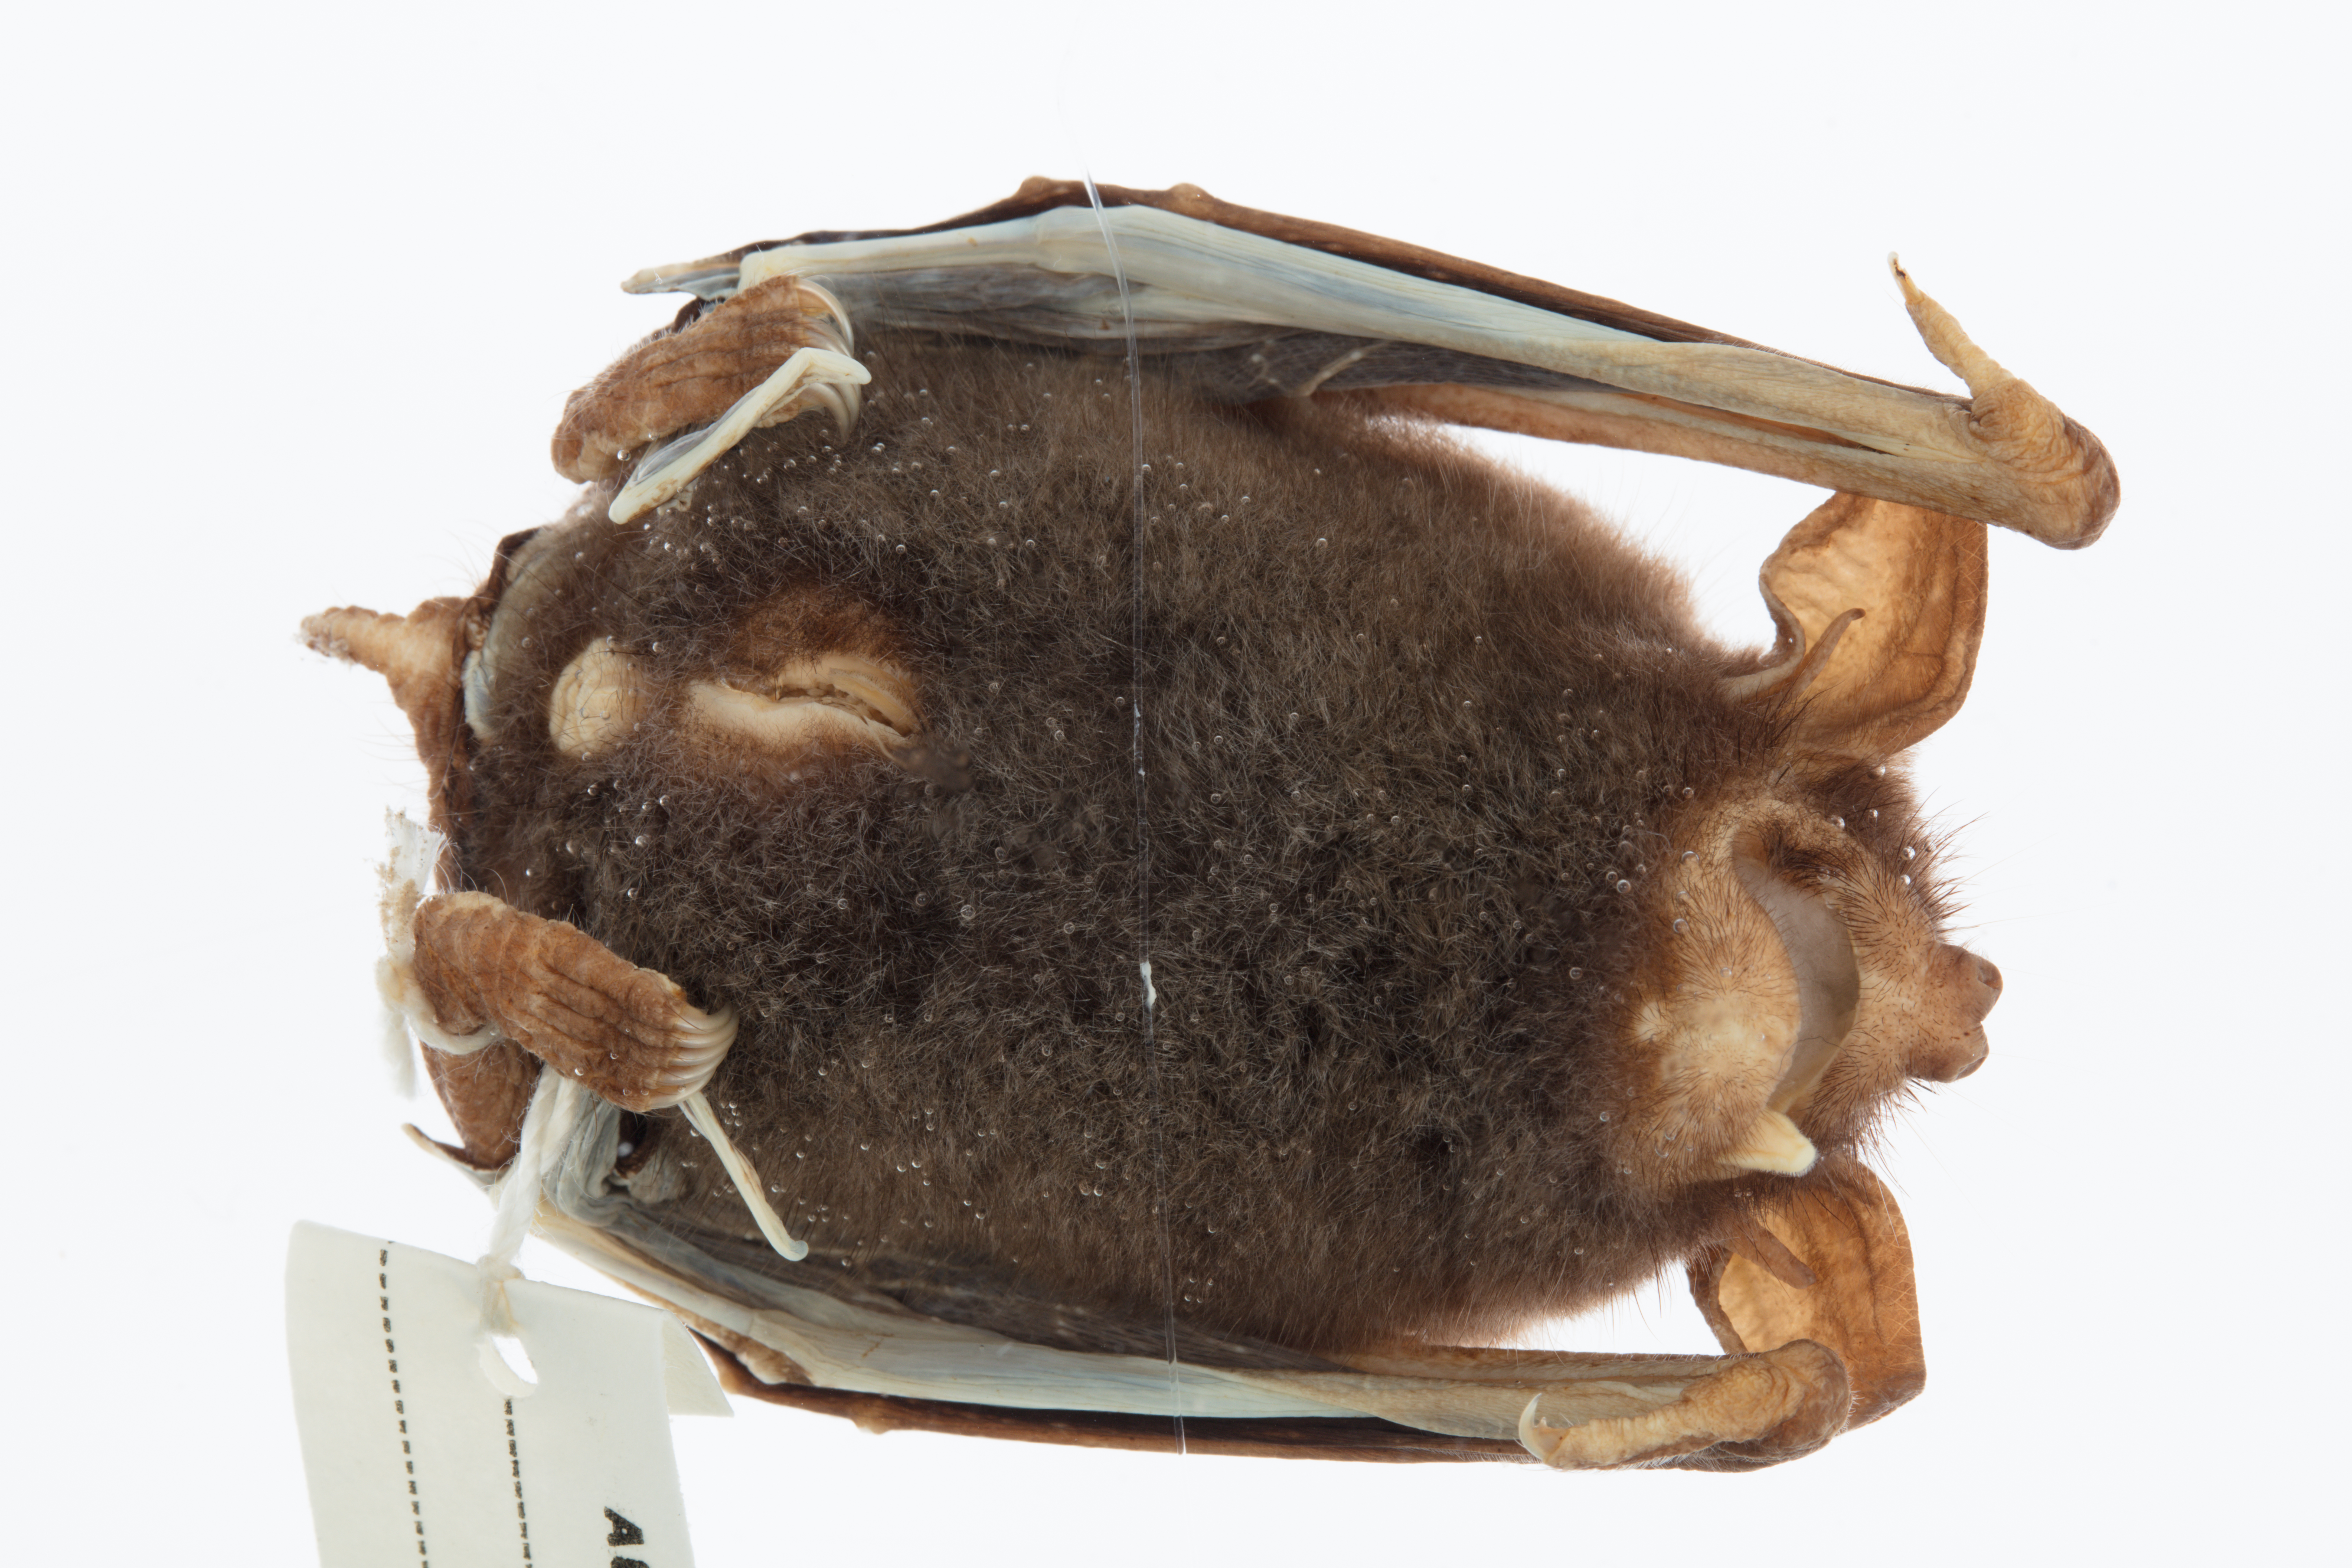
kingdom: Animalia
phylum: Chordata
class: Mammalia
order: Chiroptera
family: Mystacinidae
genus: Mystacina
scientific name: Mystacina tuberculata
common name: New zealand lesser short-tailed bat
